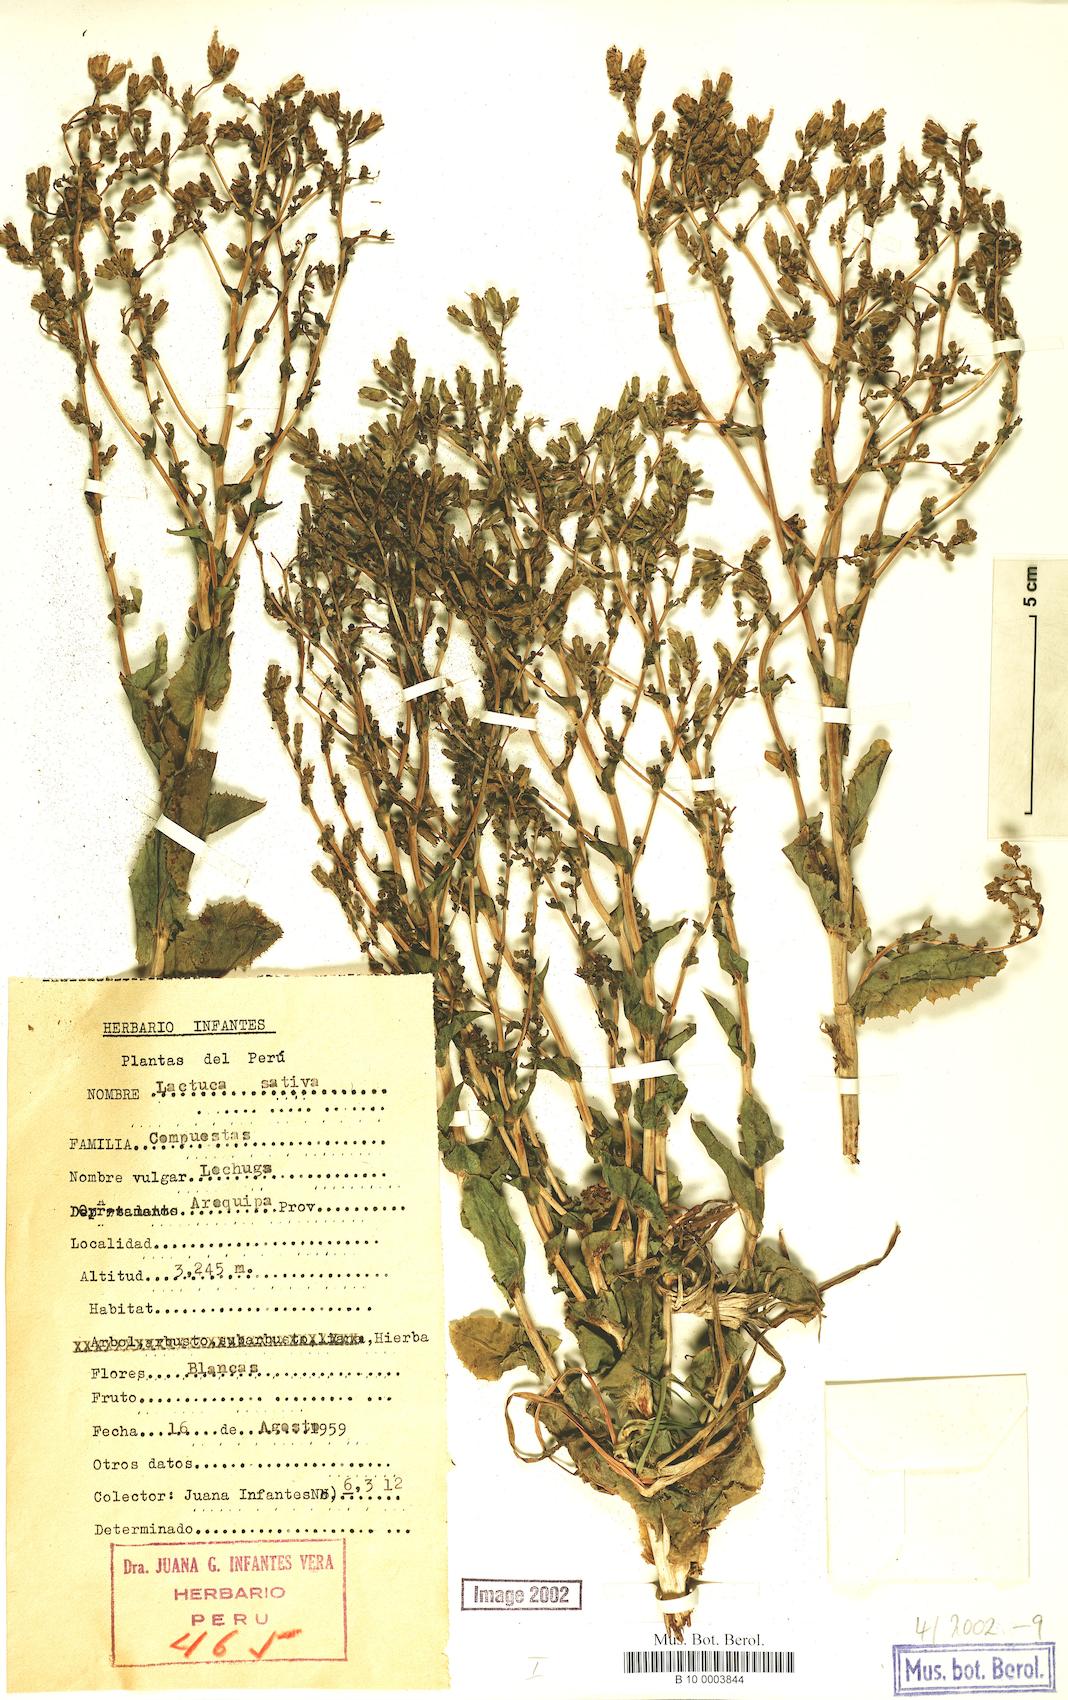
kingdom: Plantae
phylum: Tracheophyta
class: Magnoliopsida
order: Asterales
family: Asteraceae
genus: Lactuca
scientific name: Lactuca sativa
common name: Garden lettuce
